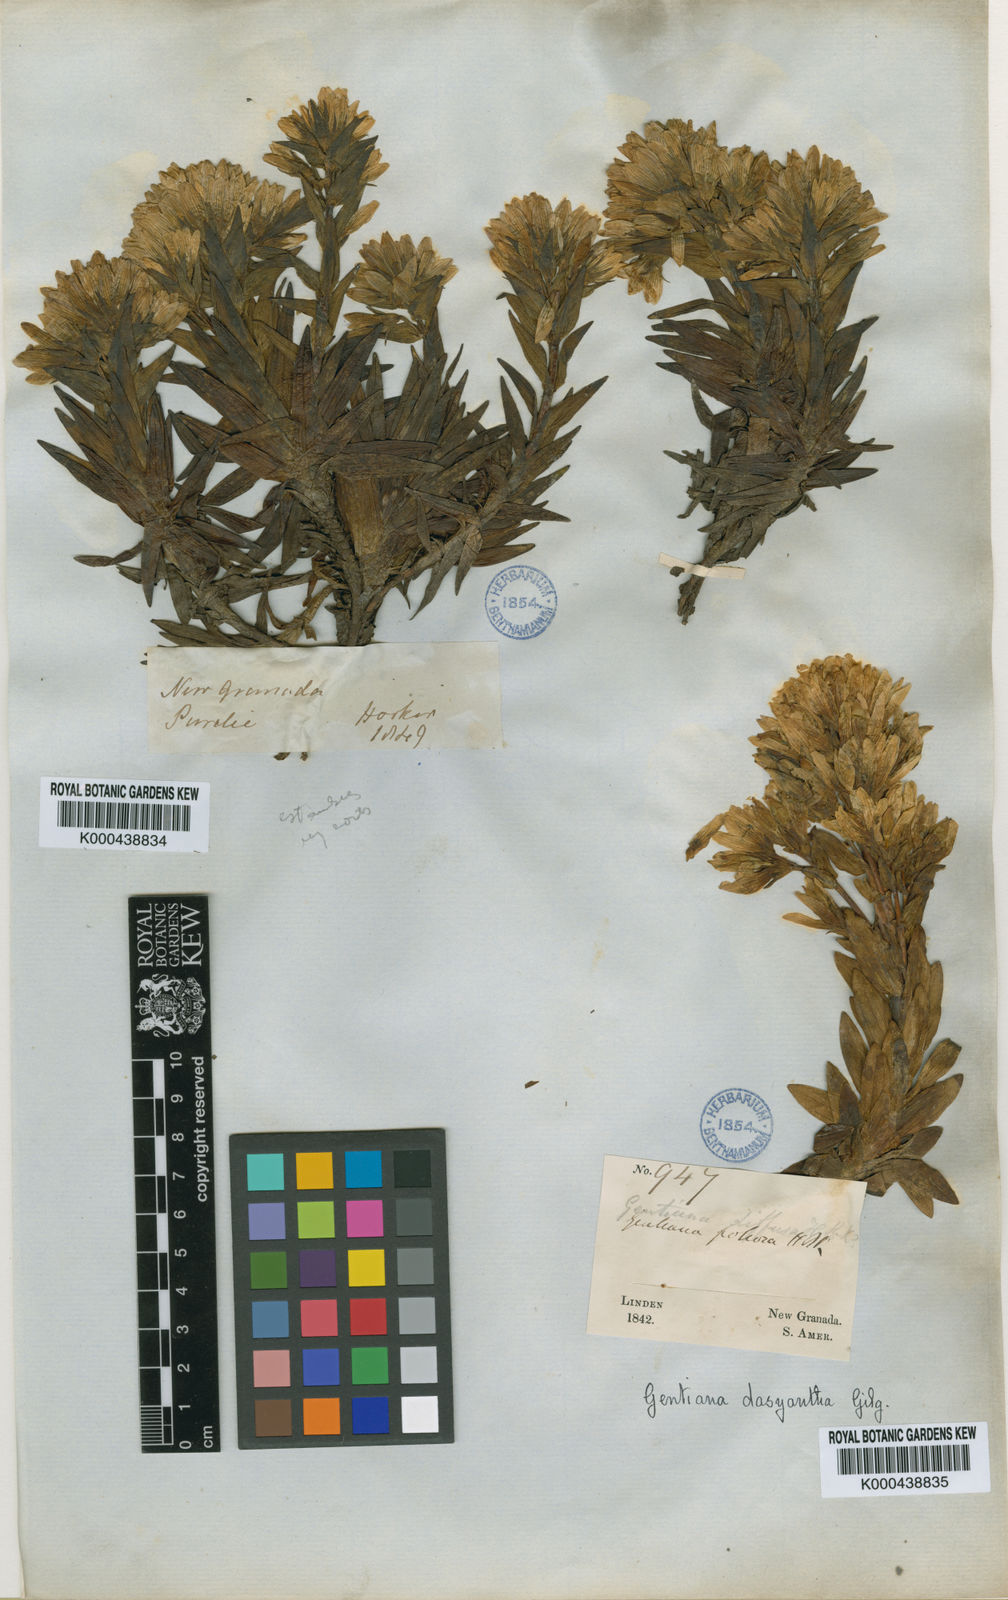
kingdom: Plantae
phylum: Tracheophyta
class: Magnoliopsida
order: Gentianales
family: Gentianaceae
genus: Gentianella
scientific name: Gentianella selaginifolia
